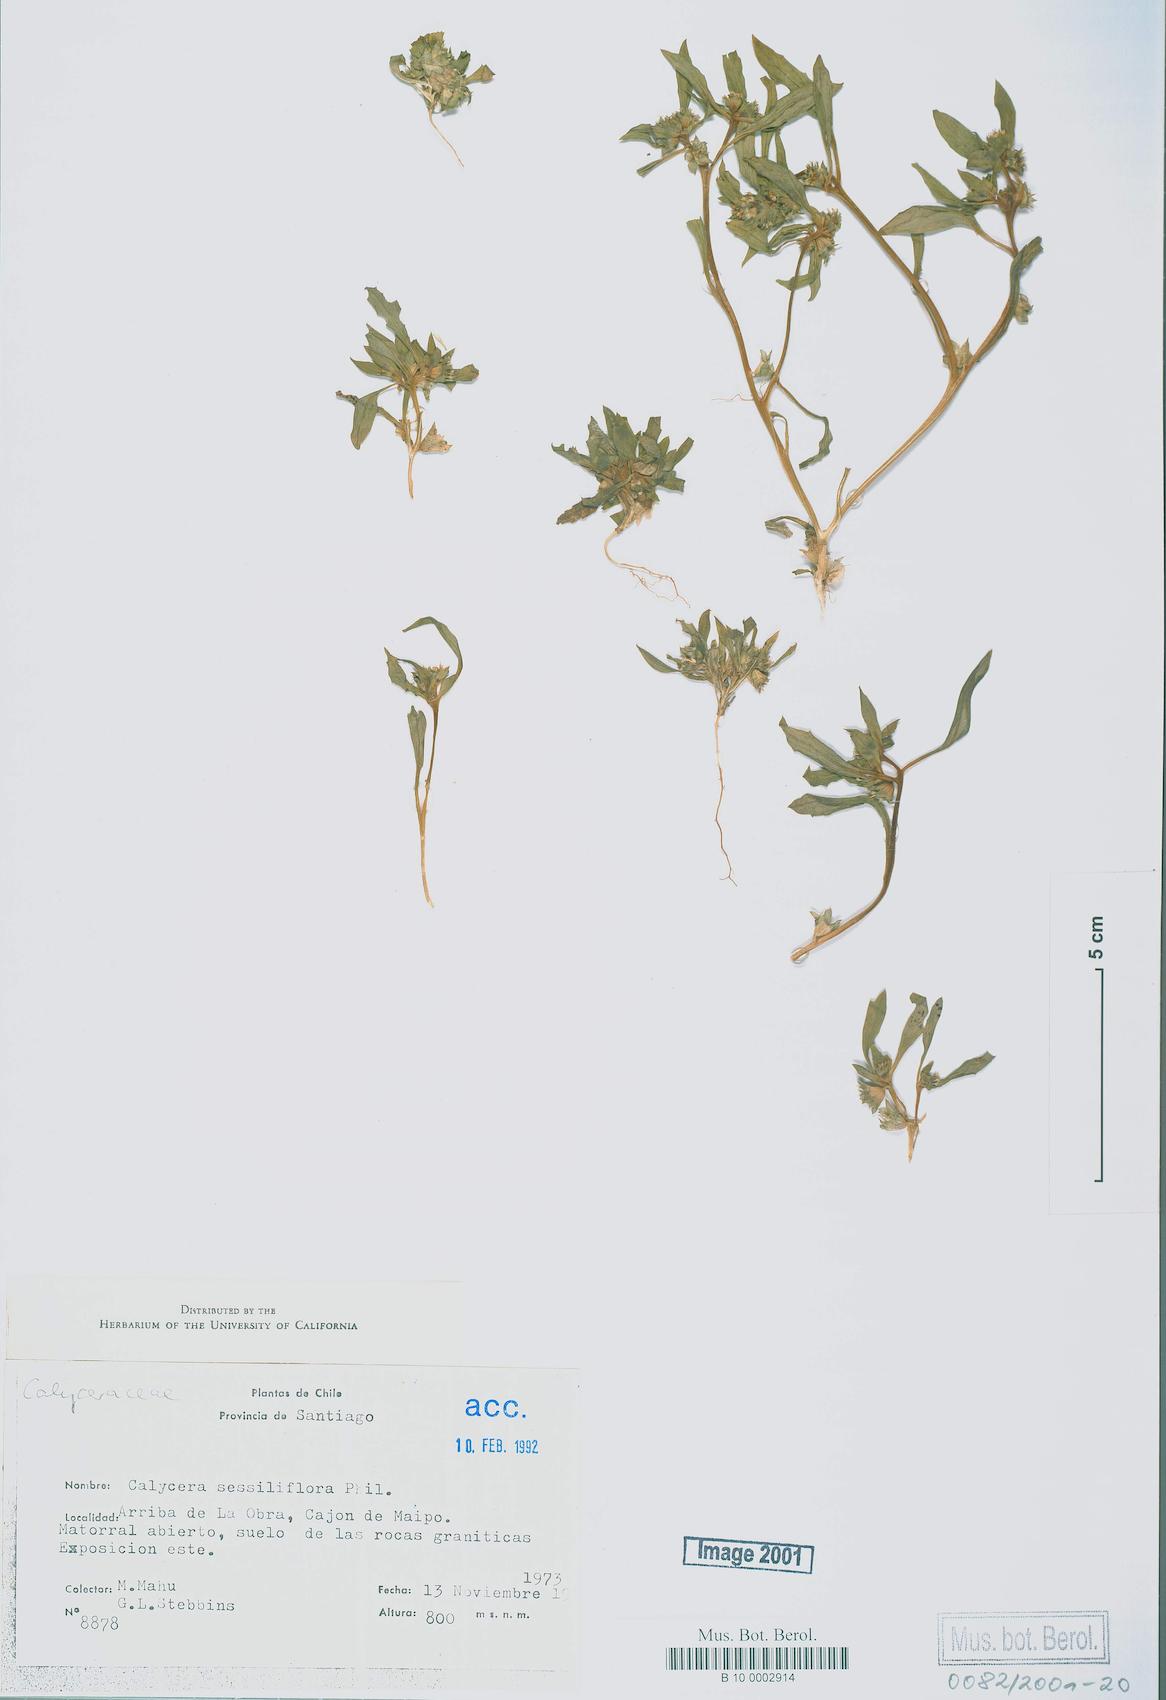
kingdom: Plantae
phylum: Tracheophyta
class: Magnoliopsida
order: Asterales
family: Calyceraceae
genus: Leucocera
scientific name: Leucocera sessiliflora
